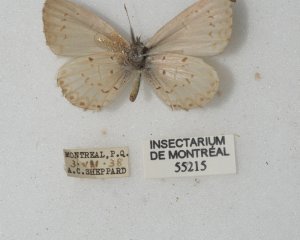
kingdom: Animalia
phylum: Arthropoda
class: Insecta
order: Lepidoptera
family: Lycaenidae
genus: Cyaniris
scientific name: Cyaniris neglecta
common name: Summer Azure
